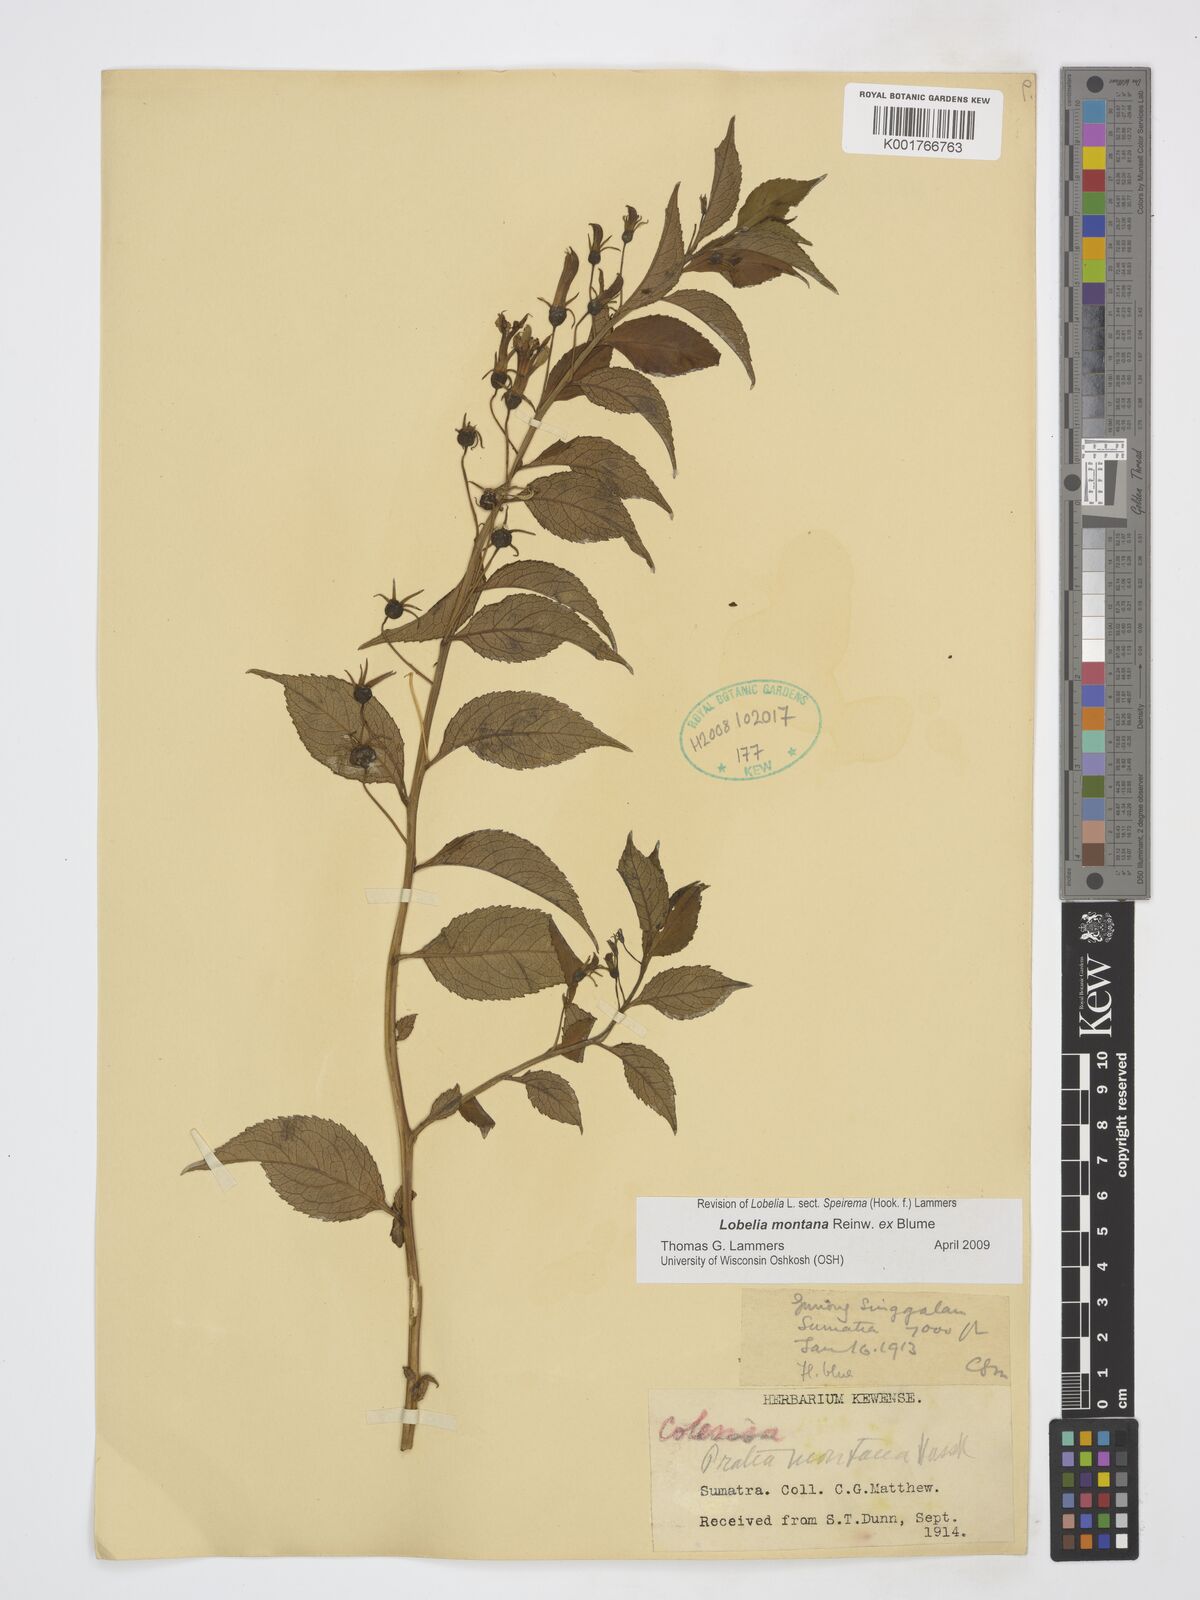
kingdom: Plantae
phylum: Tracheophyta
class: Magnoliopsida
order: Asterales
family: Campanulaceae
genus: Lobelia
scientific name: Lobelia montana
